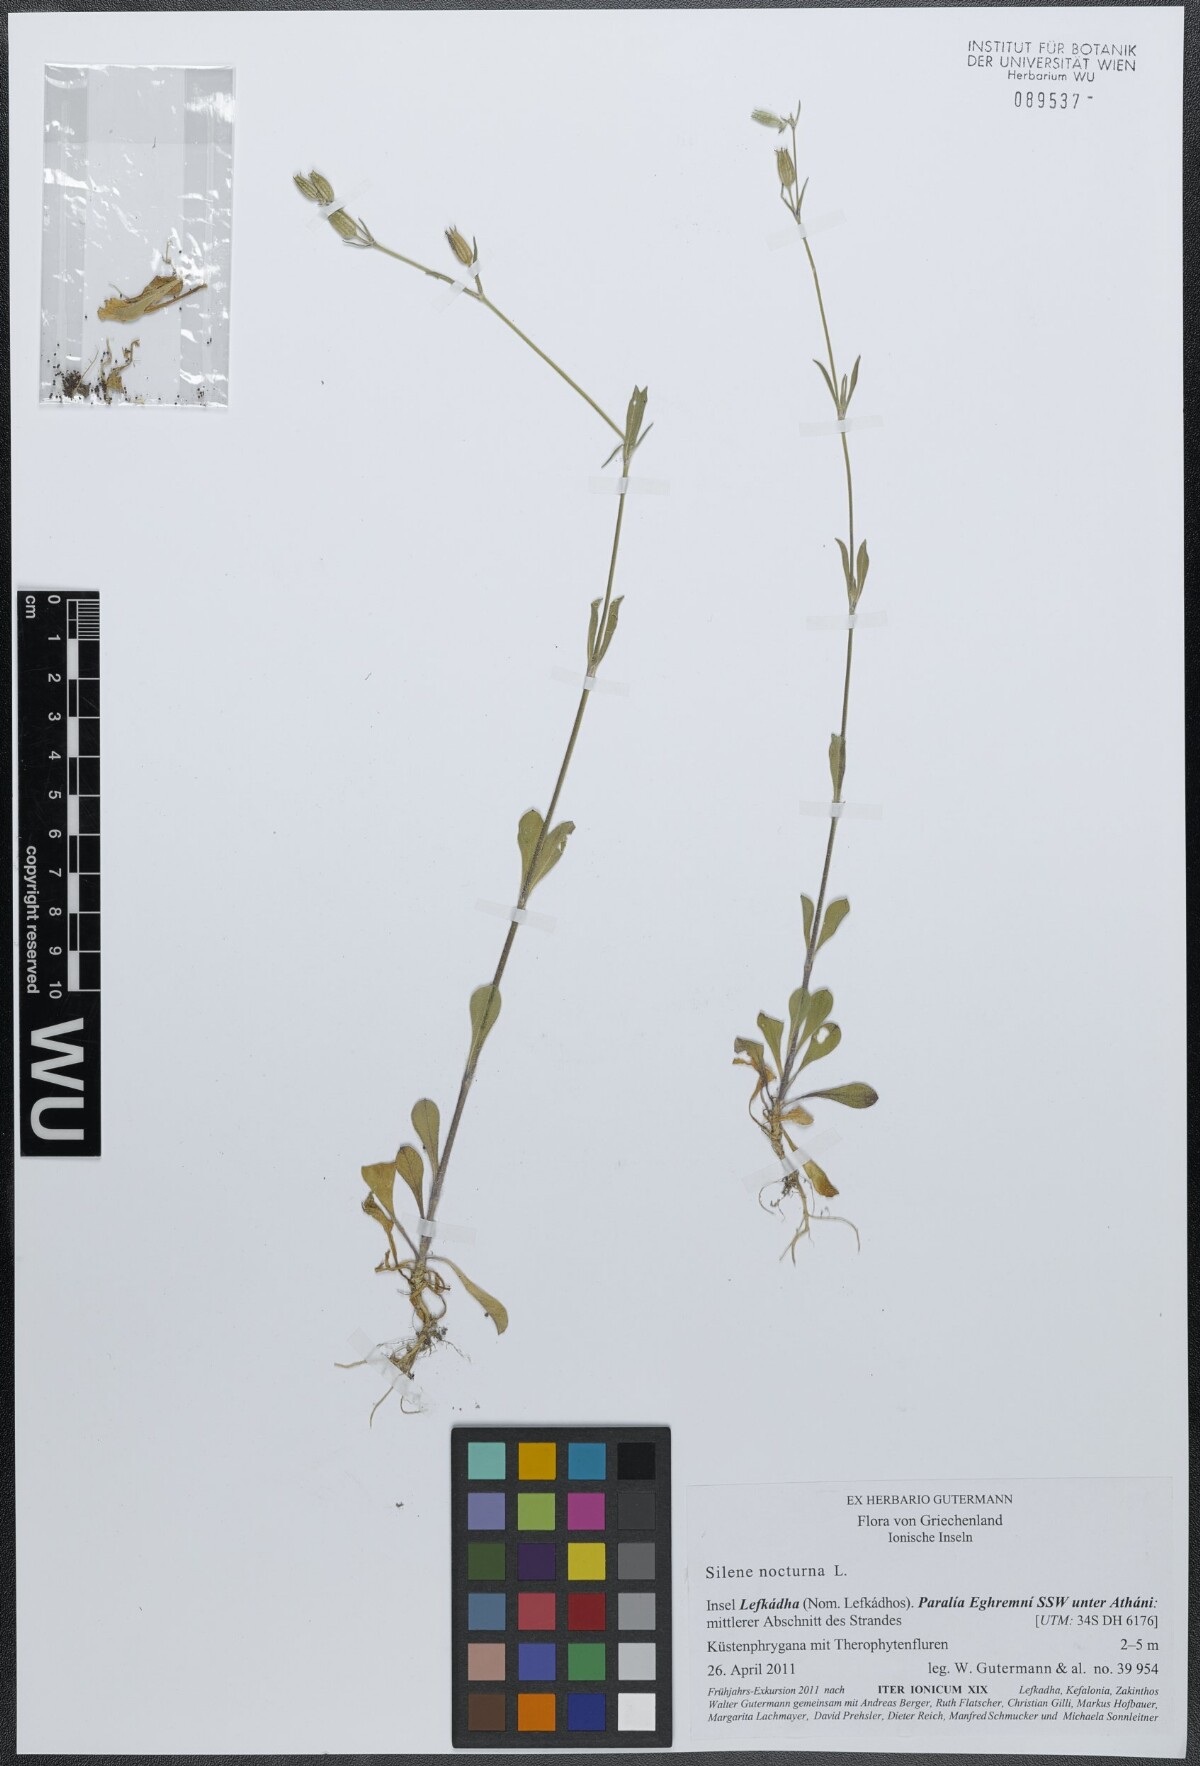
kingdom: Plantae
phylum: Tracheophyta
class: Magnoliopsida
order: Caryophyllales
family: Caryophyllaceae
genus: Silene
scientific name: Silene nocturna
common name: Mediterranean catchfly
